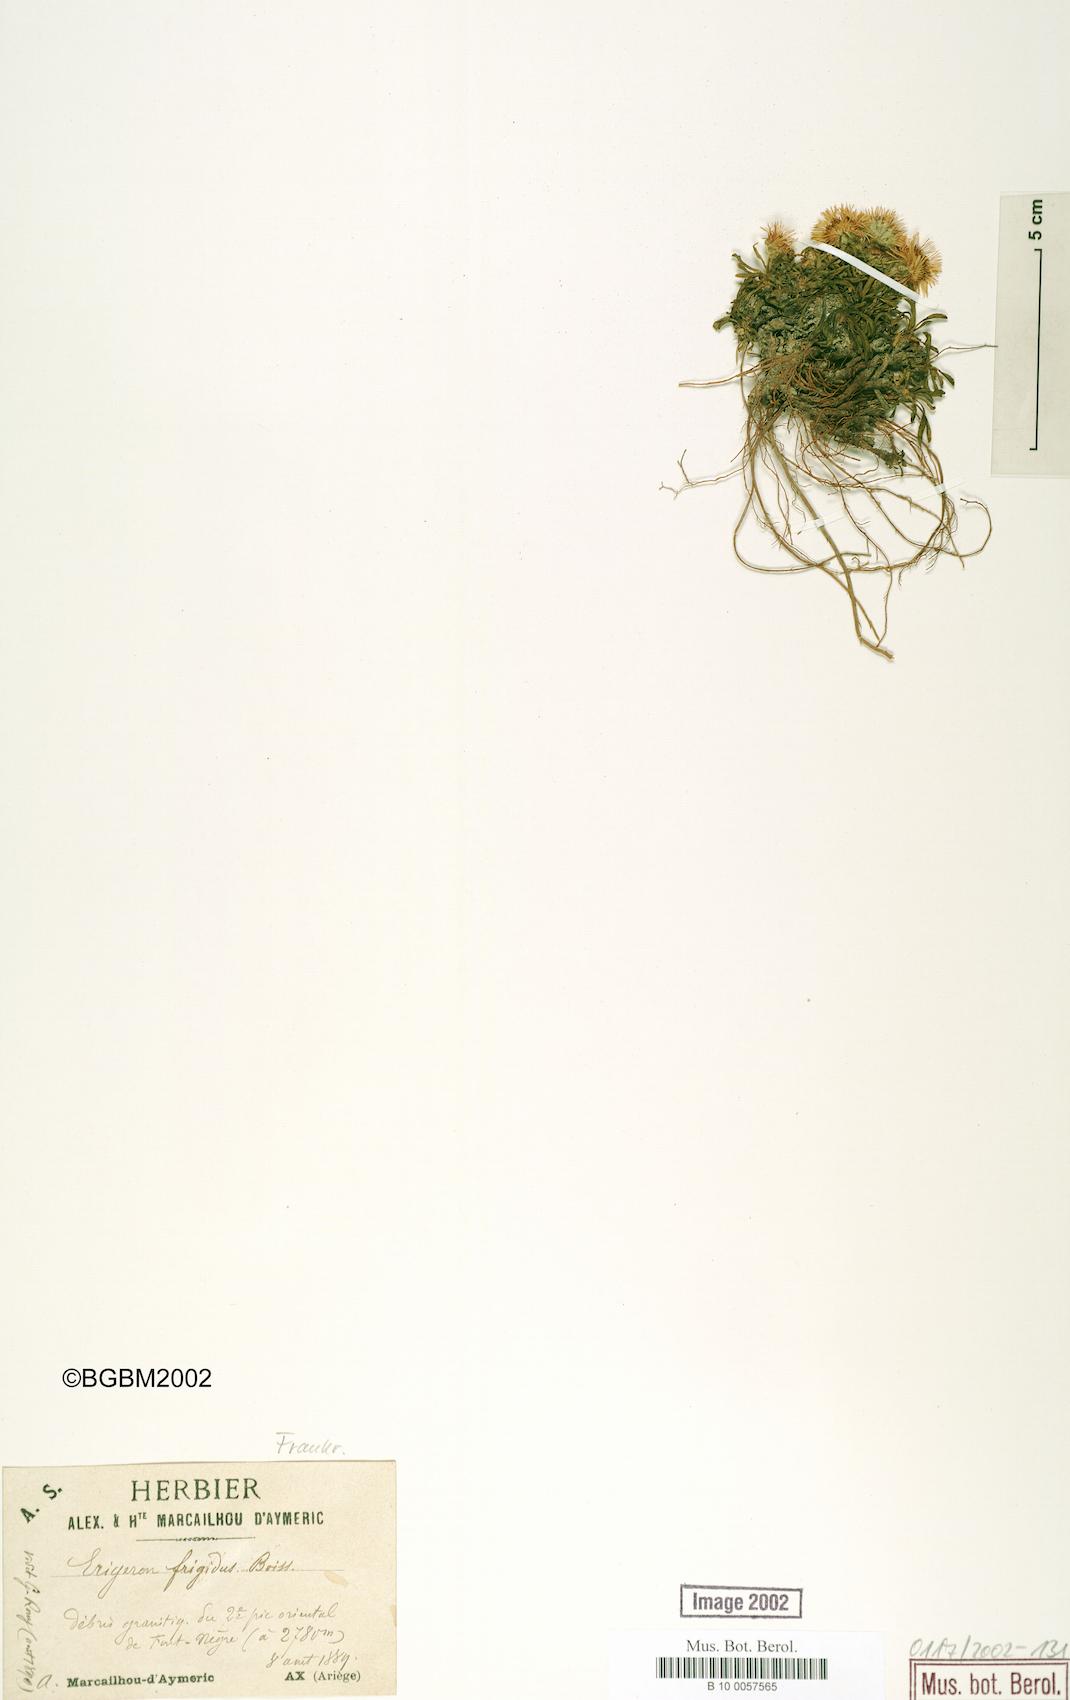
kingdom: Plantae
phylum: Tracheophyta
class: Magnoliopsida
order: Asterales
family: Asteraceae
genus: Erigeron
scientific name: Erigeron aragonensis
